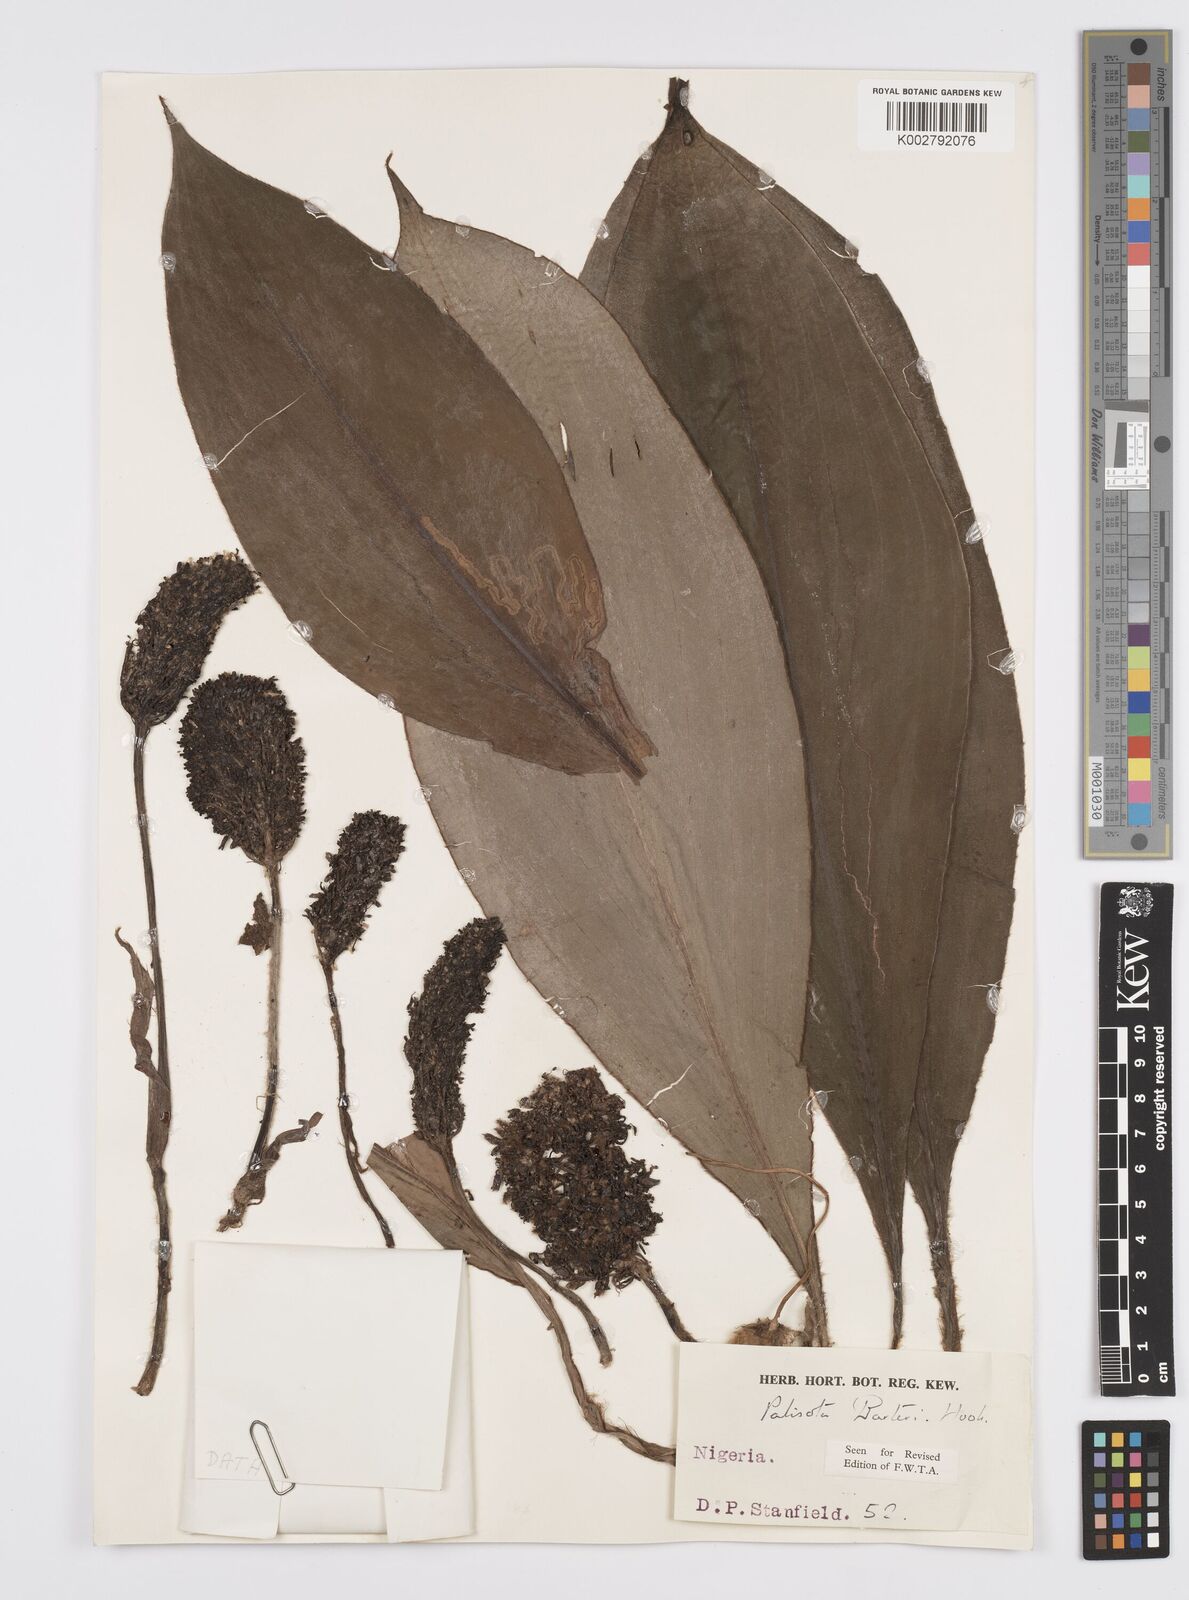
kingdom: Plantae
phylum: Tracheophyta
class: Liliopsida
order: Commelinales
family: Commelinaceae
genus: Palisota
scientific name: Palisota barteri
